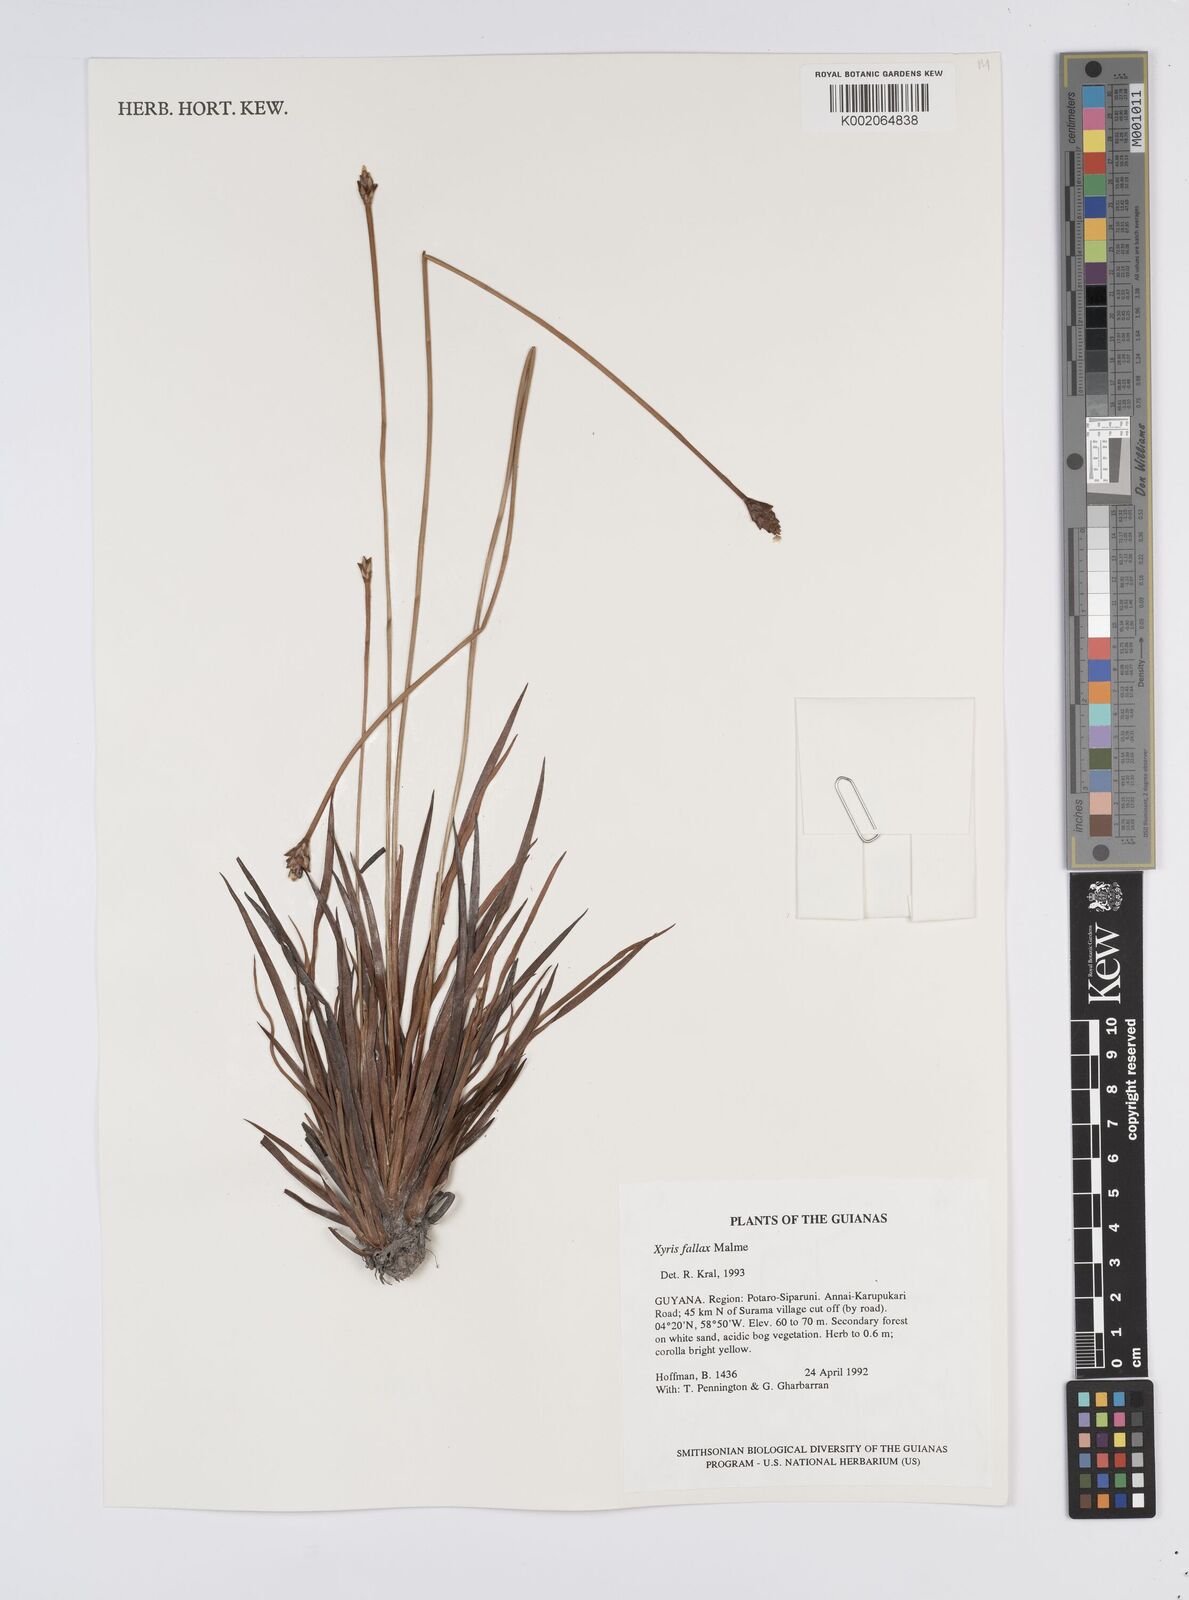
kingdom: Plantae
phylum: Tracheophyta
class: Liliopsida
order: Poales
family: Xyridaceae
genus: Xyris
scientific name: Xyris fallax
